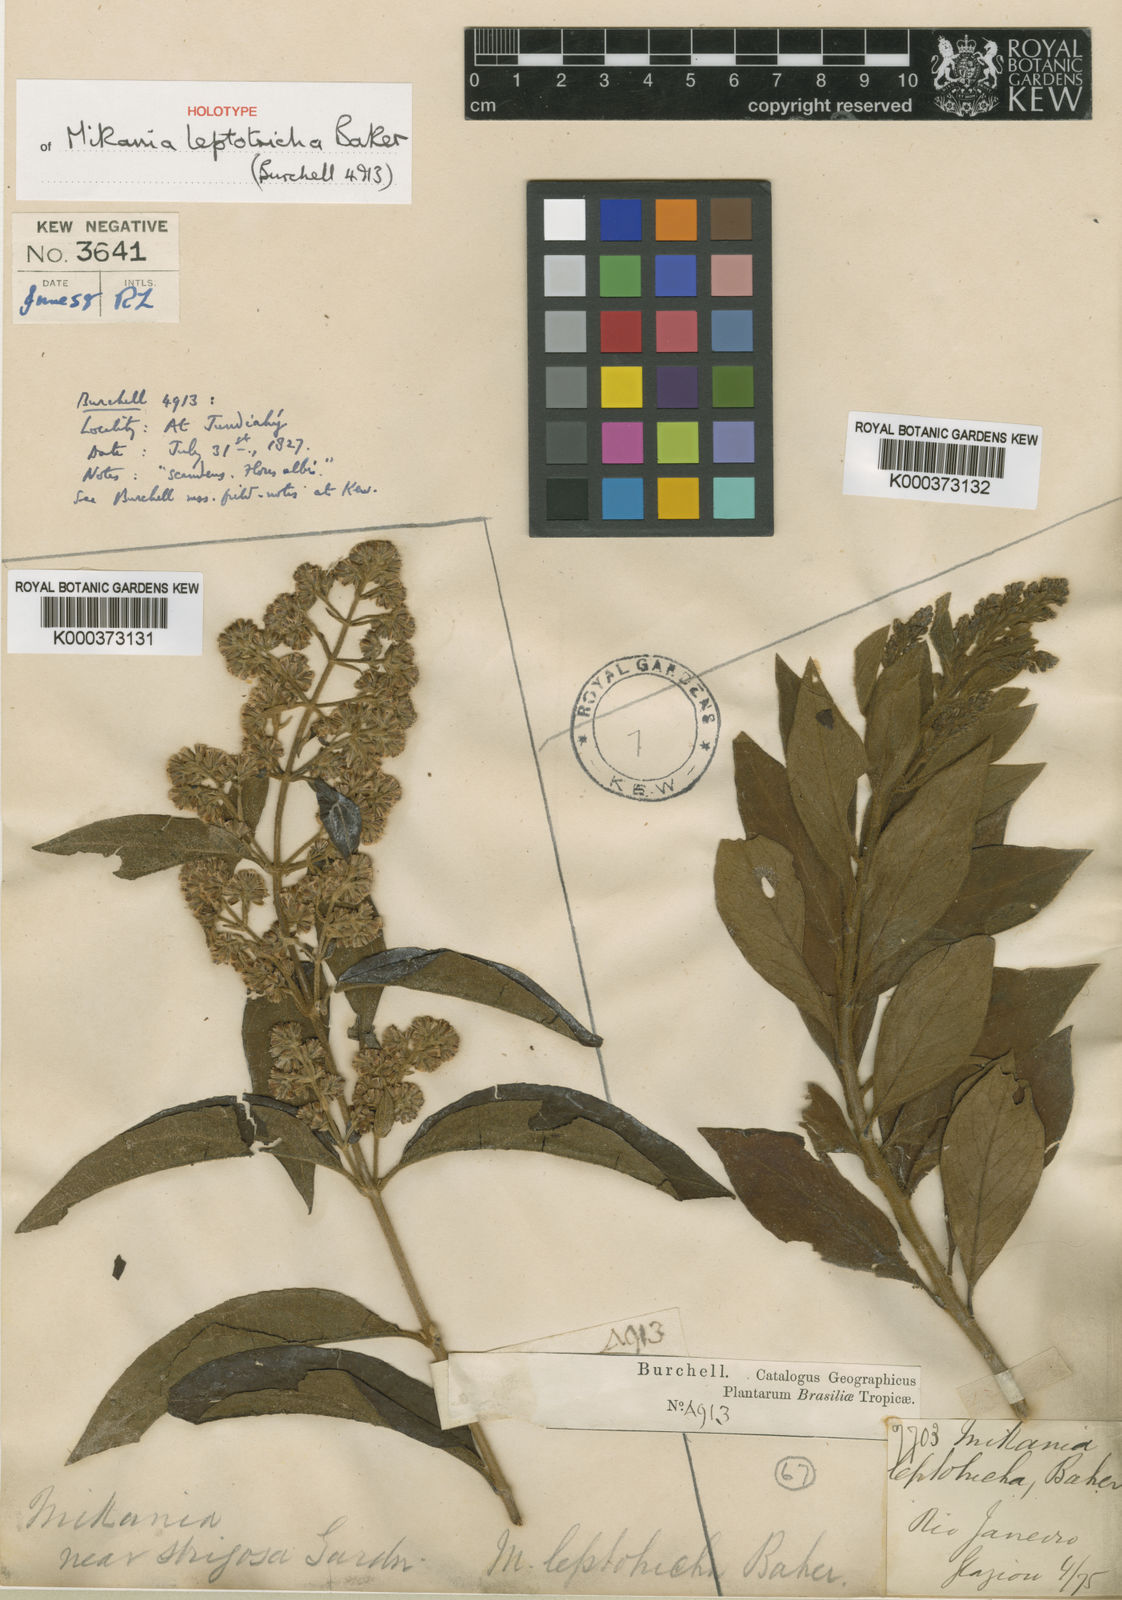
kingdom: Plantae
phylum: Tracheophyta
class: Magnoliopsida
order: Asterales
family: Asteraceae
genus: Mikania
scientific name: Mikania leptotricha
